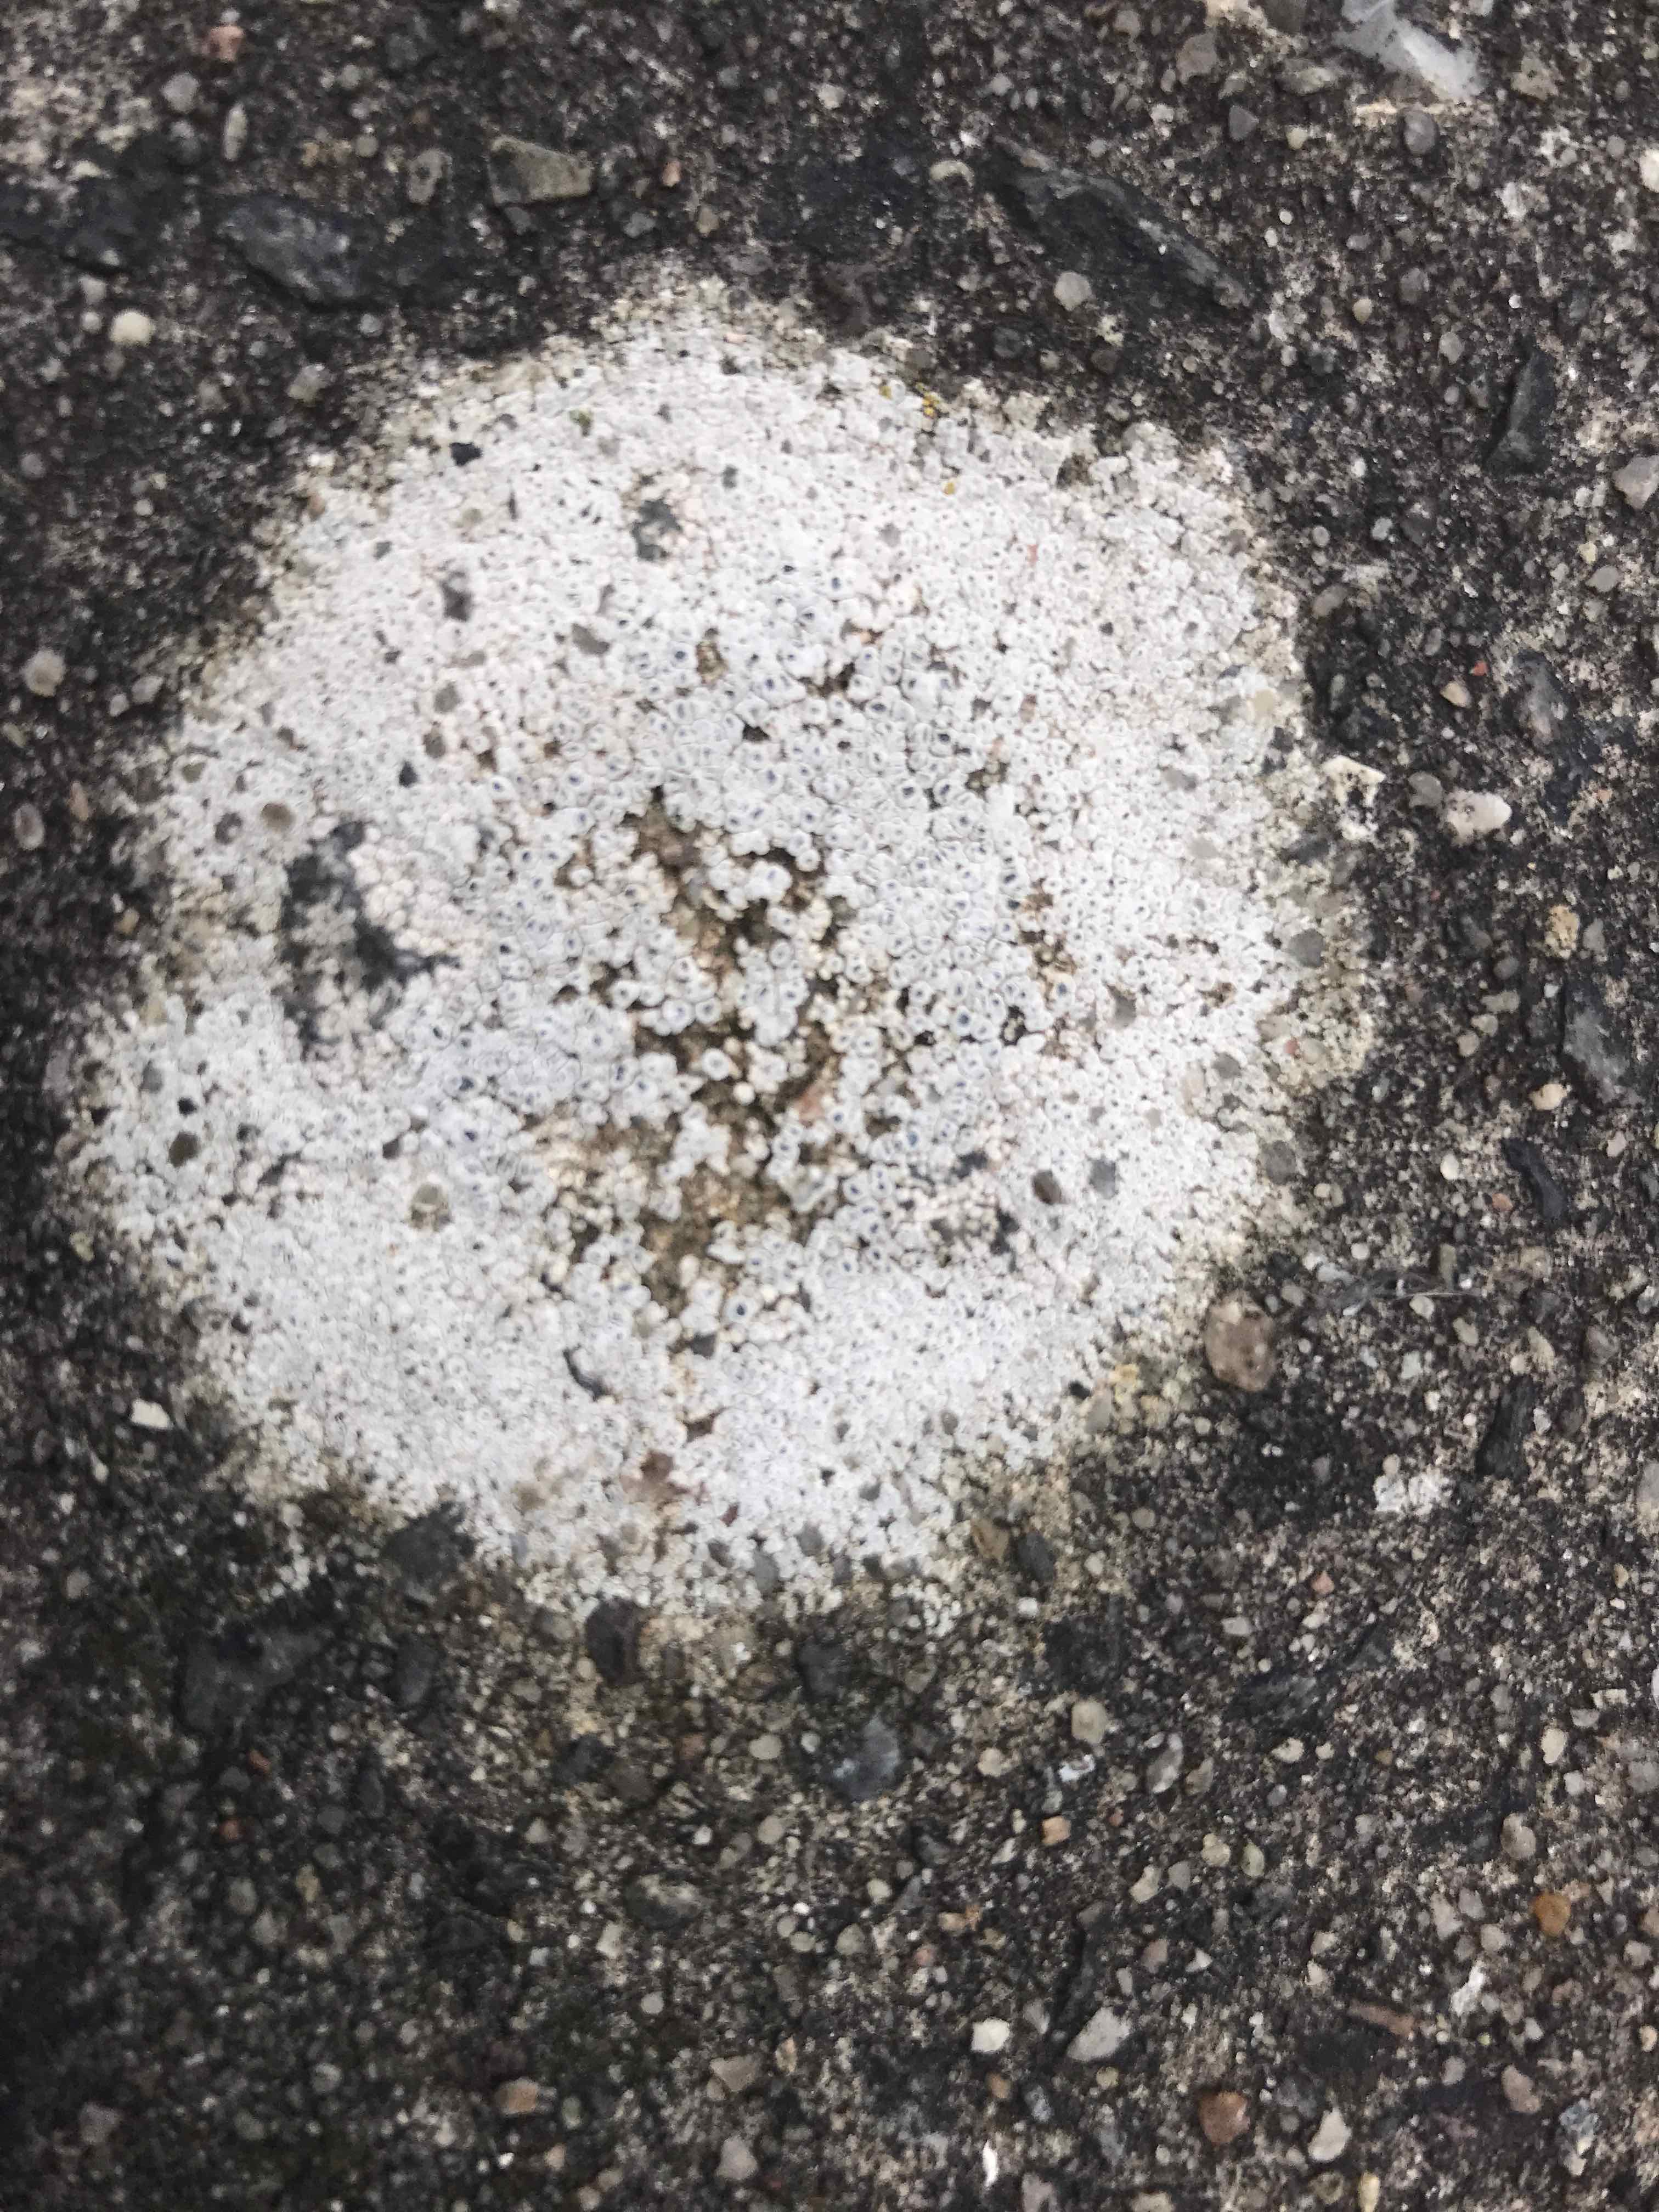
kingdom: Fungi
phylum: Ascomycota
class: Lecanoromycetes
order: Pertusariales
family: Megasporaceae
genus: Circinaria
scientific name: Circinaria contorta
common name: indviklet hulskivelav
